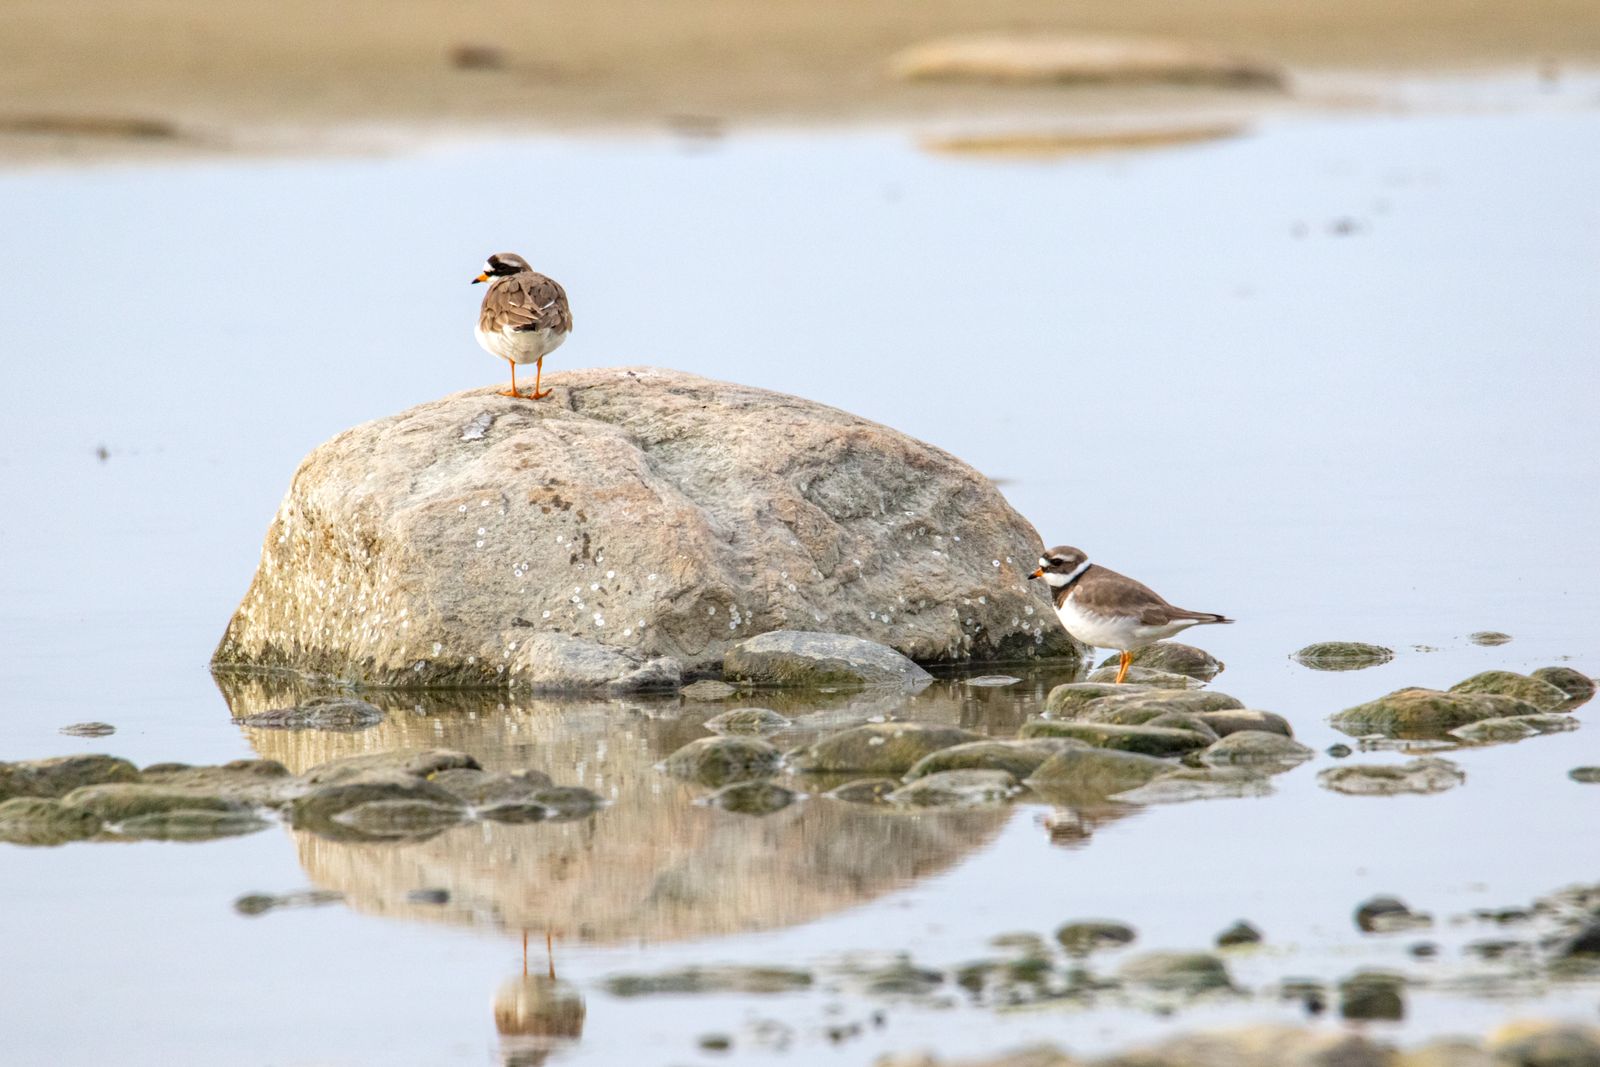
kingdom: Animalia
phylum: Chordata
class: Aves
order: Charadriiformes
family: Charadriidae
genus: Charadrius
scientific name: Charadrius hiaticula
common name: Common ringed plover
